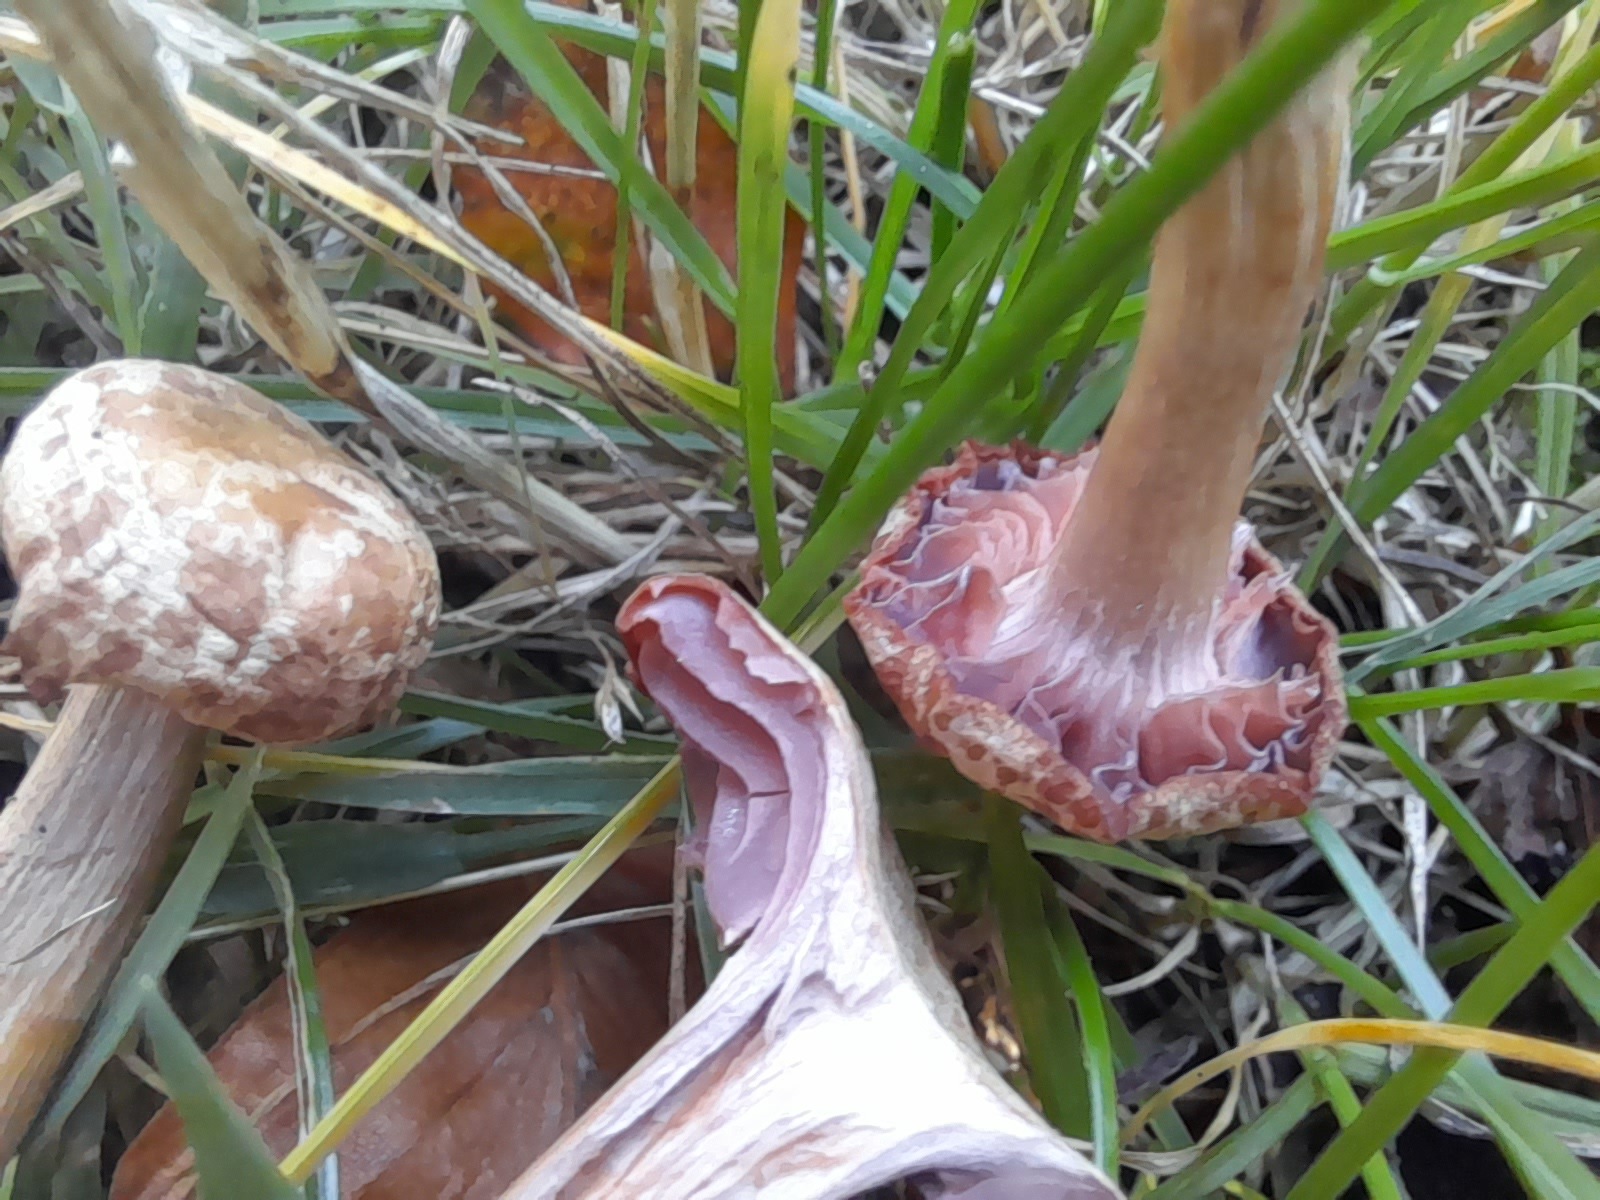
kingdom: Fungi
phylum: Basidiomycota
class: Agaricomycetes
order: Agaricales
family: Hydnangiaceae
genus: Laccaria
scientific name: Laccaria laccata
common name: rød ametysthat
